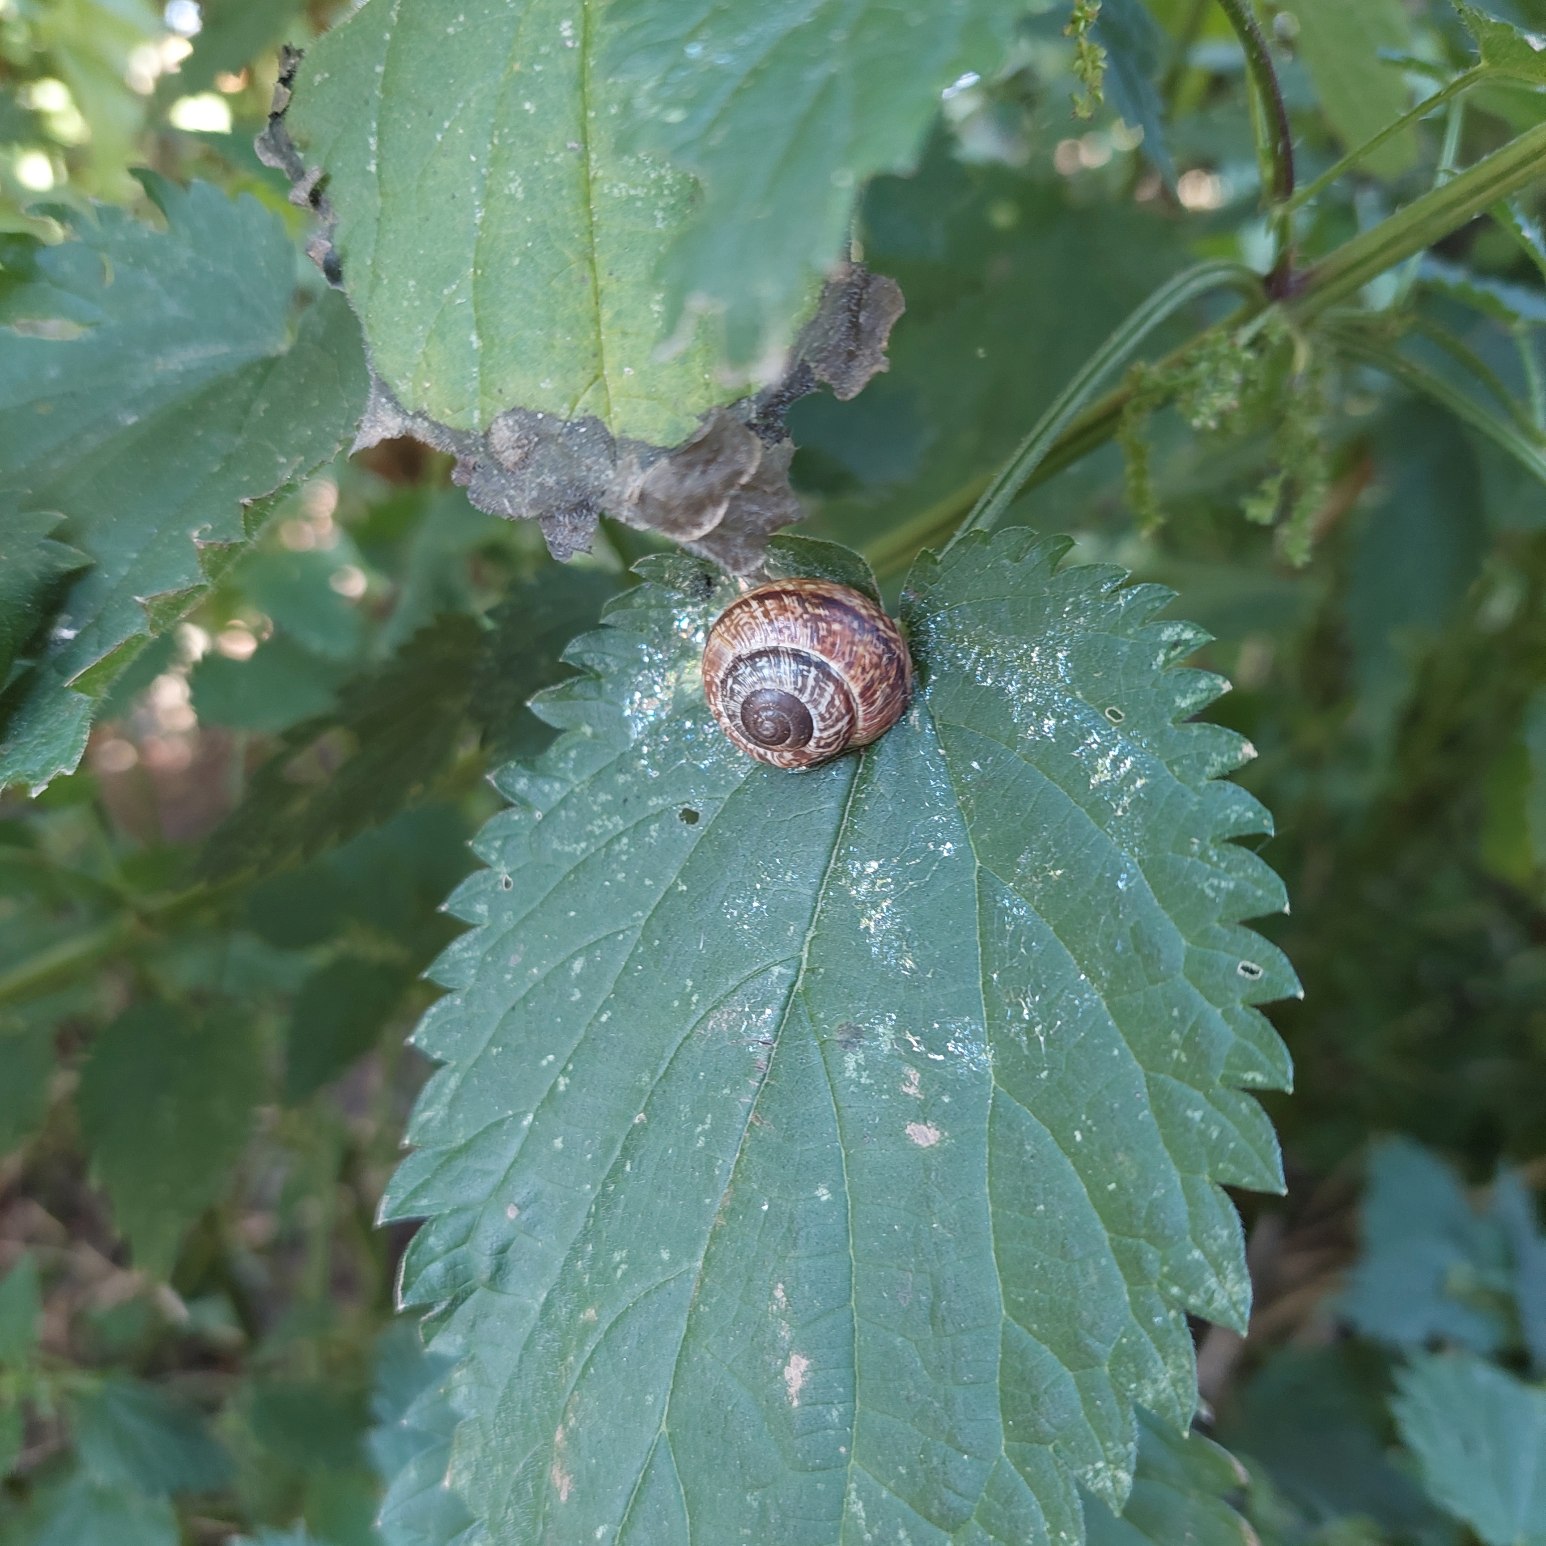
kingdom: Animalia
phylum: Mollusca
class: Gastropoda
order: Stylommatophora
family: Helicidae
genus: Arianta
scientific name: Arianta arbustorum
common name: Kratsnegl
